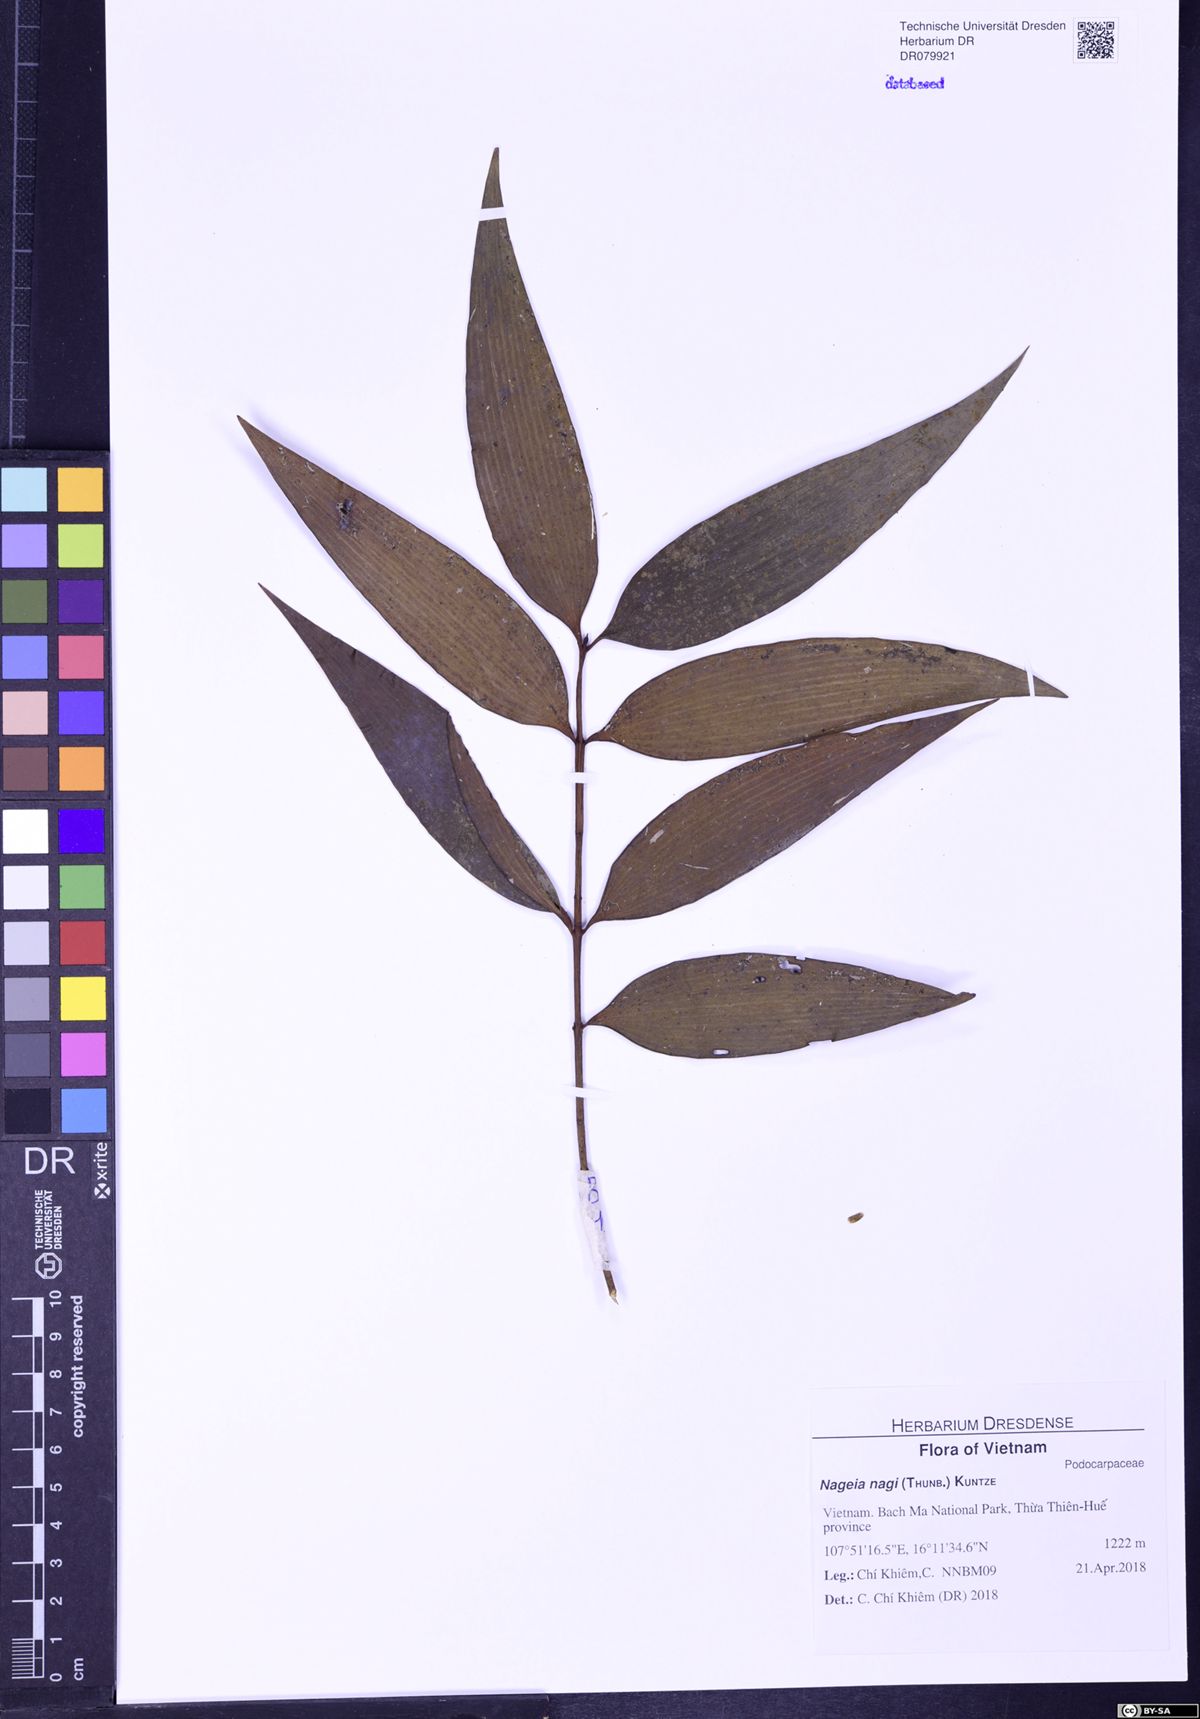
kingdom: Plantae
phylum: Tracheophyta
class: Pinopsida
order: Pinales
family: Podocarpaceae
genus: Nageia
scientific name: Nageia nagi
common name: Kaphal
